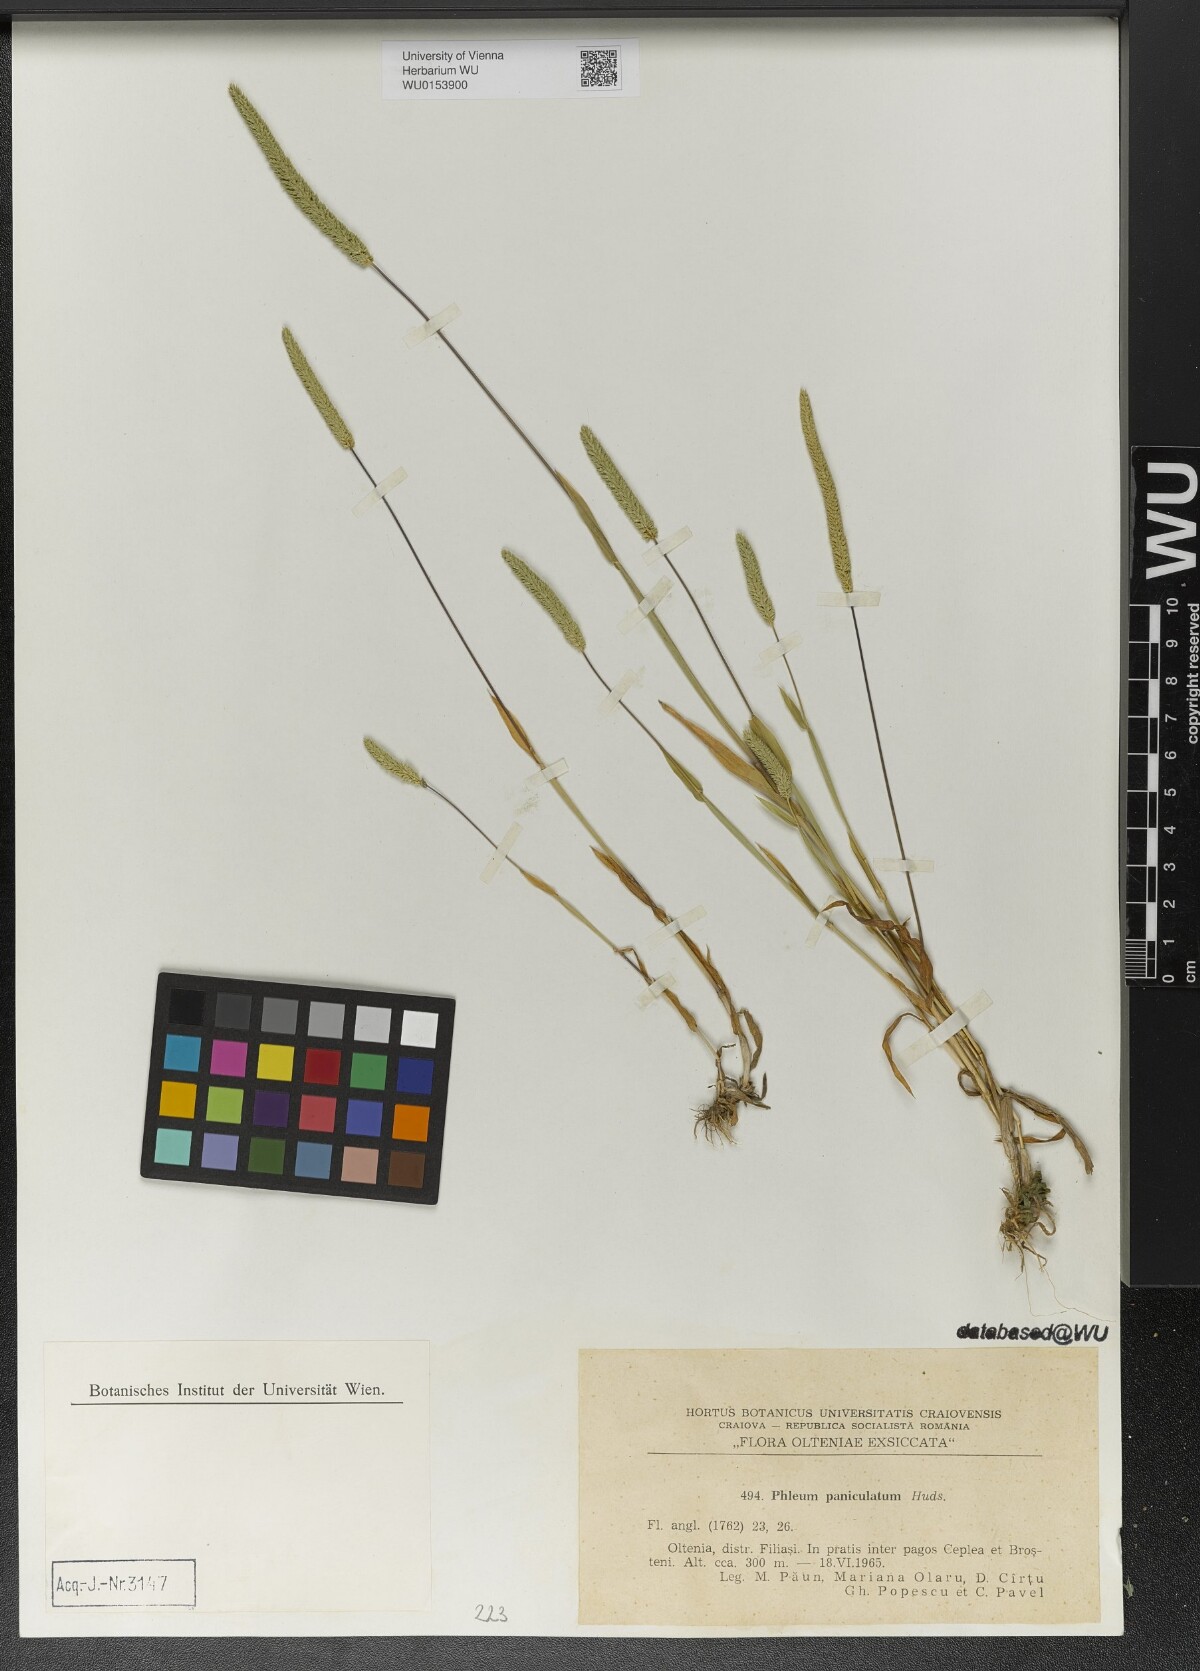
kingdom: Plantae
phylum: Tracheophyta
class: Liliopsida
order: Poales
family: Poaceae
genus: Phleum
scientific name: Phleum paniculatum
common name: British timothy
